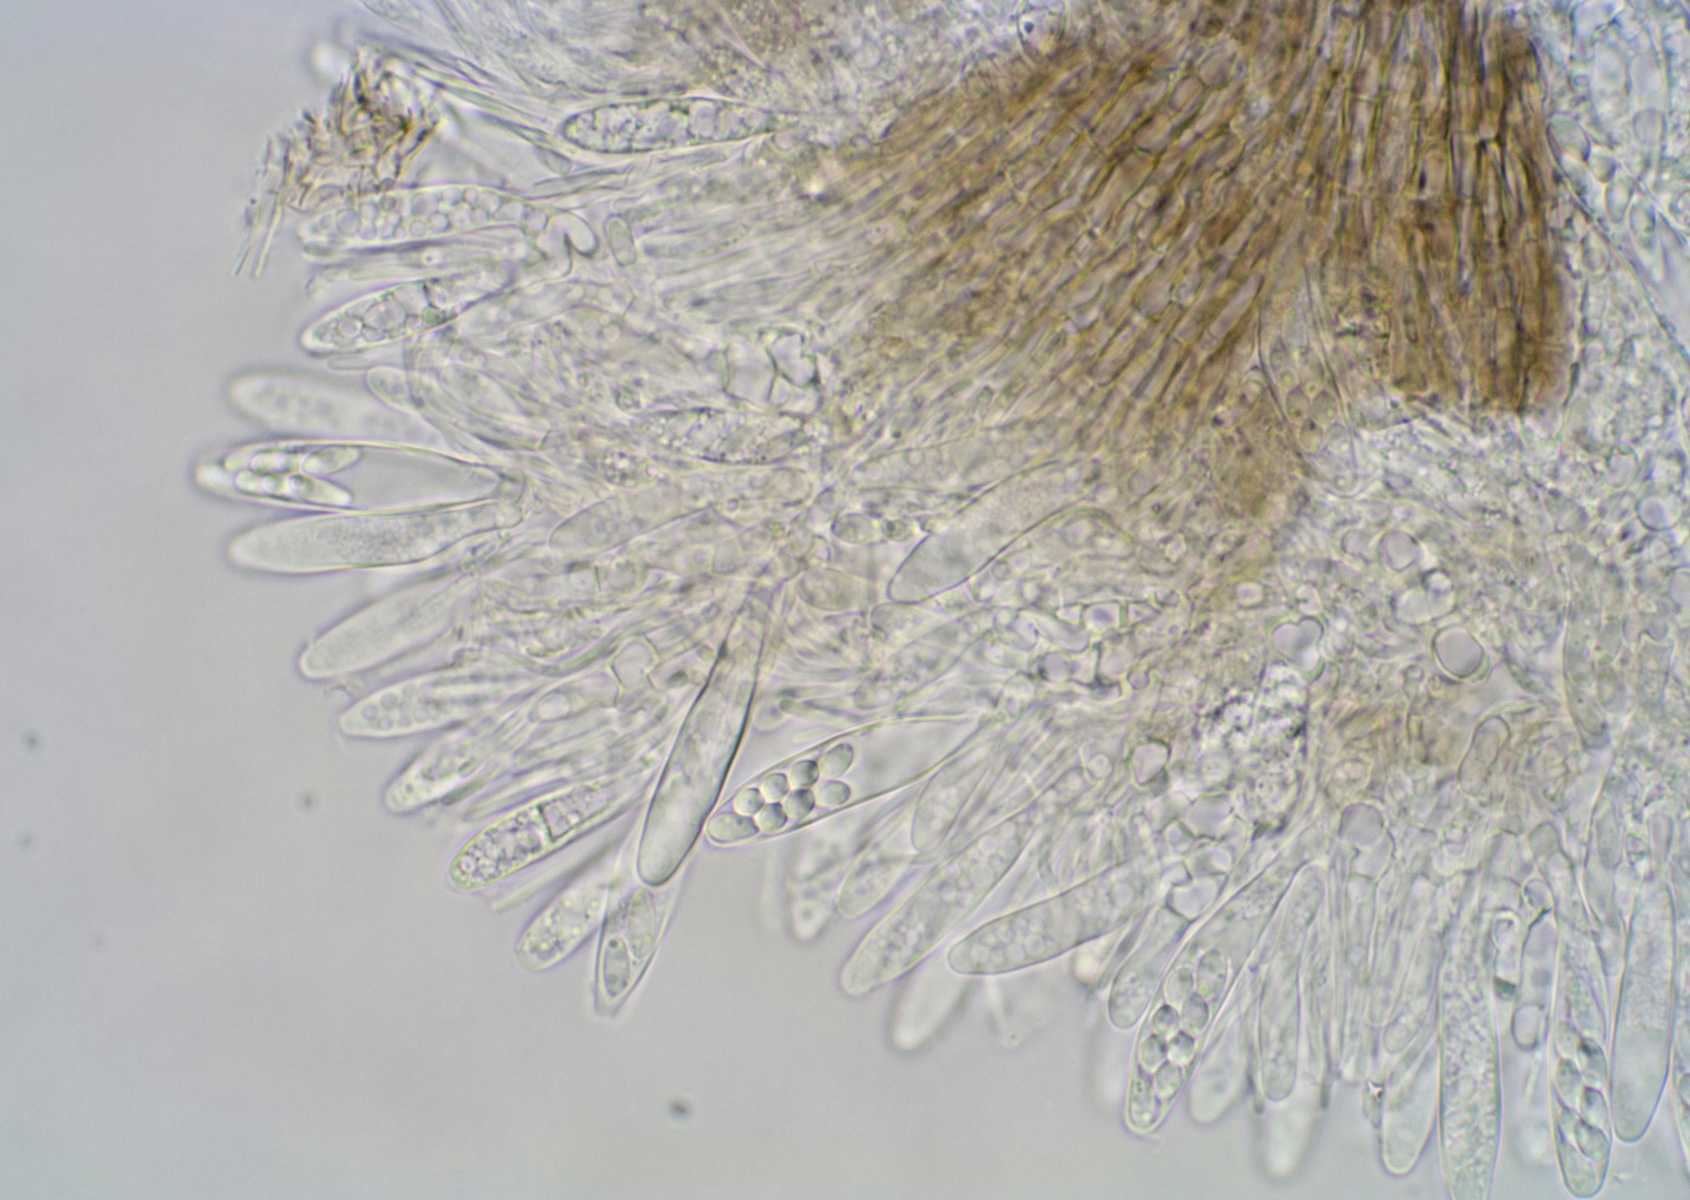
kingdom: Fungi
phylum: Ascomycota
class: Leotiomycetes
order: Helotiales
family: Hyaloscyphaceae
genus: Dematioscypha
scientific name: Dematioscypha dematiicola
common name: grålig skimmelskive
